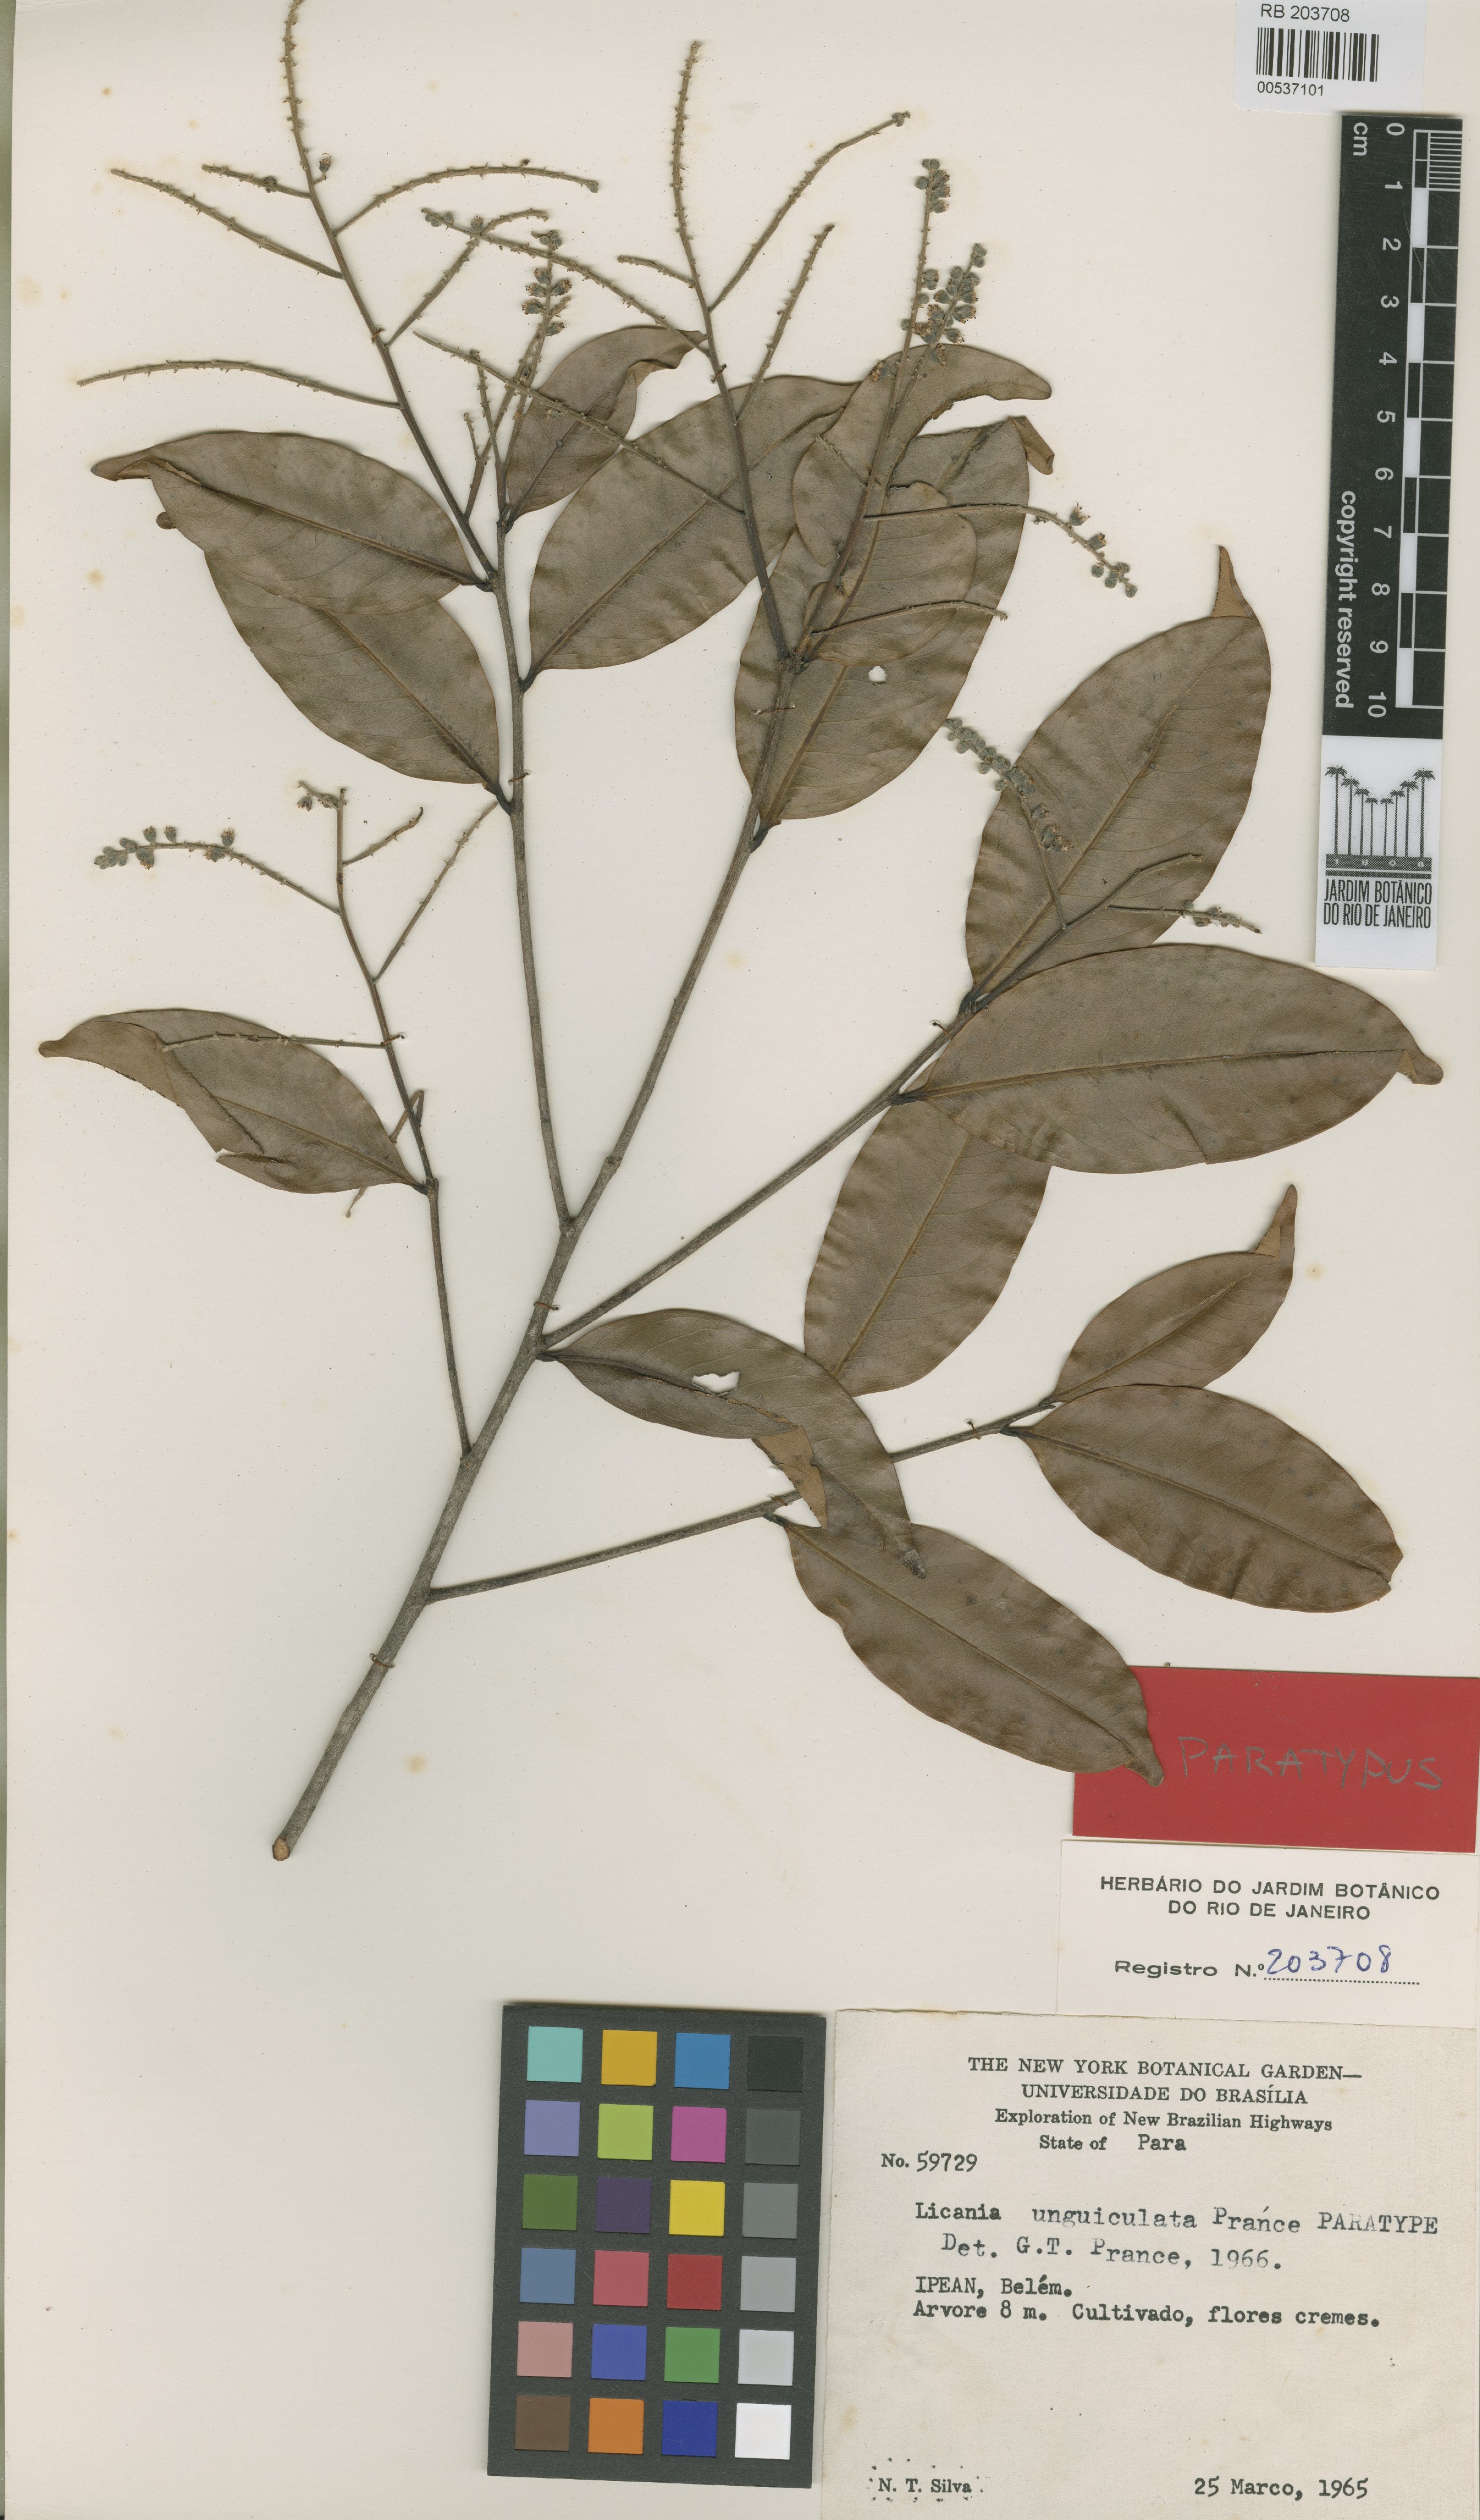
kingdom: Plantae
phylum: Tracheophyta
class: Magnoliopsida
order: Malpighiales
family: Chrysobalanaceae
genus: Moquilea
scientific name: Moquilea unguiculata
